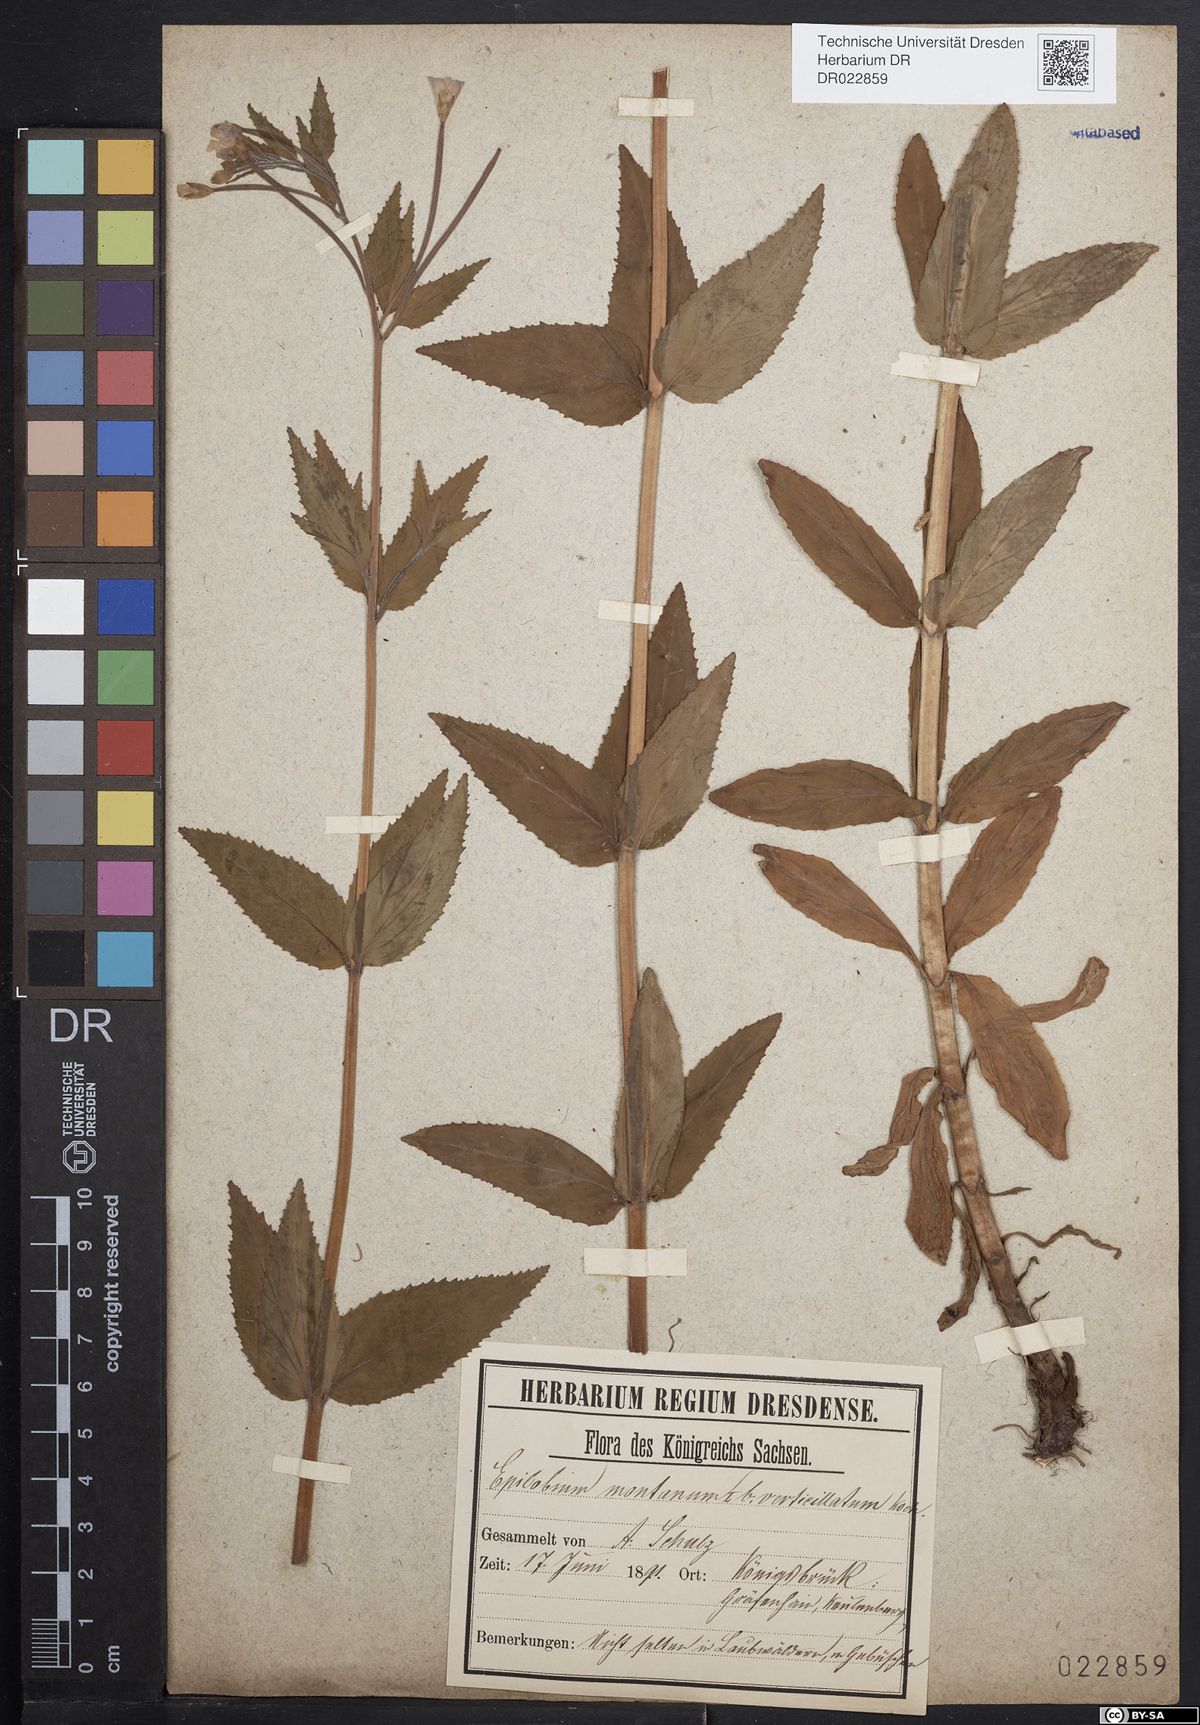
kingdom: Plantae
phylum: Tracheophyta
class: Magnoliopsida
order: Myrtales
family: Onagraceae
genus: Epilobium
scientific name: Epilobium montanum
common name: Broad-leaved willowherb
